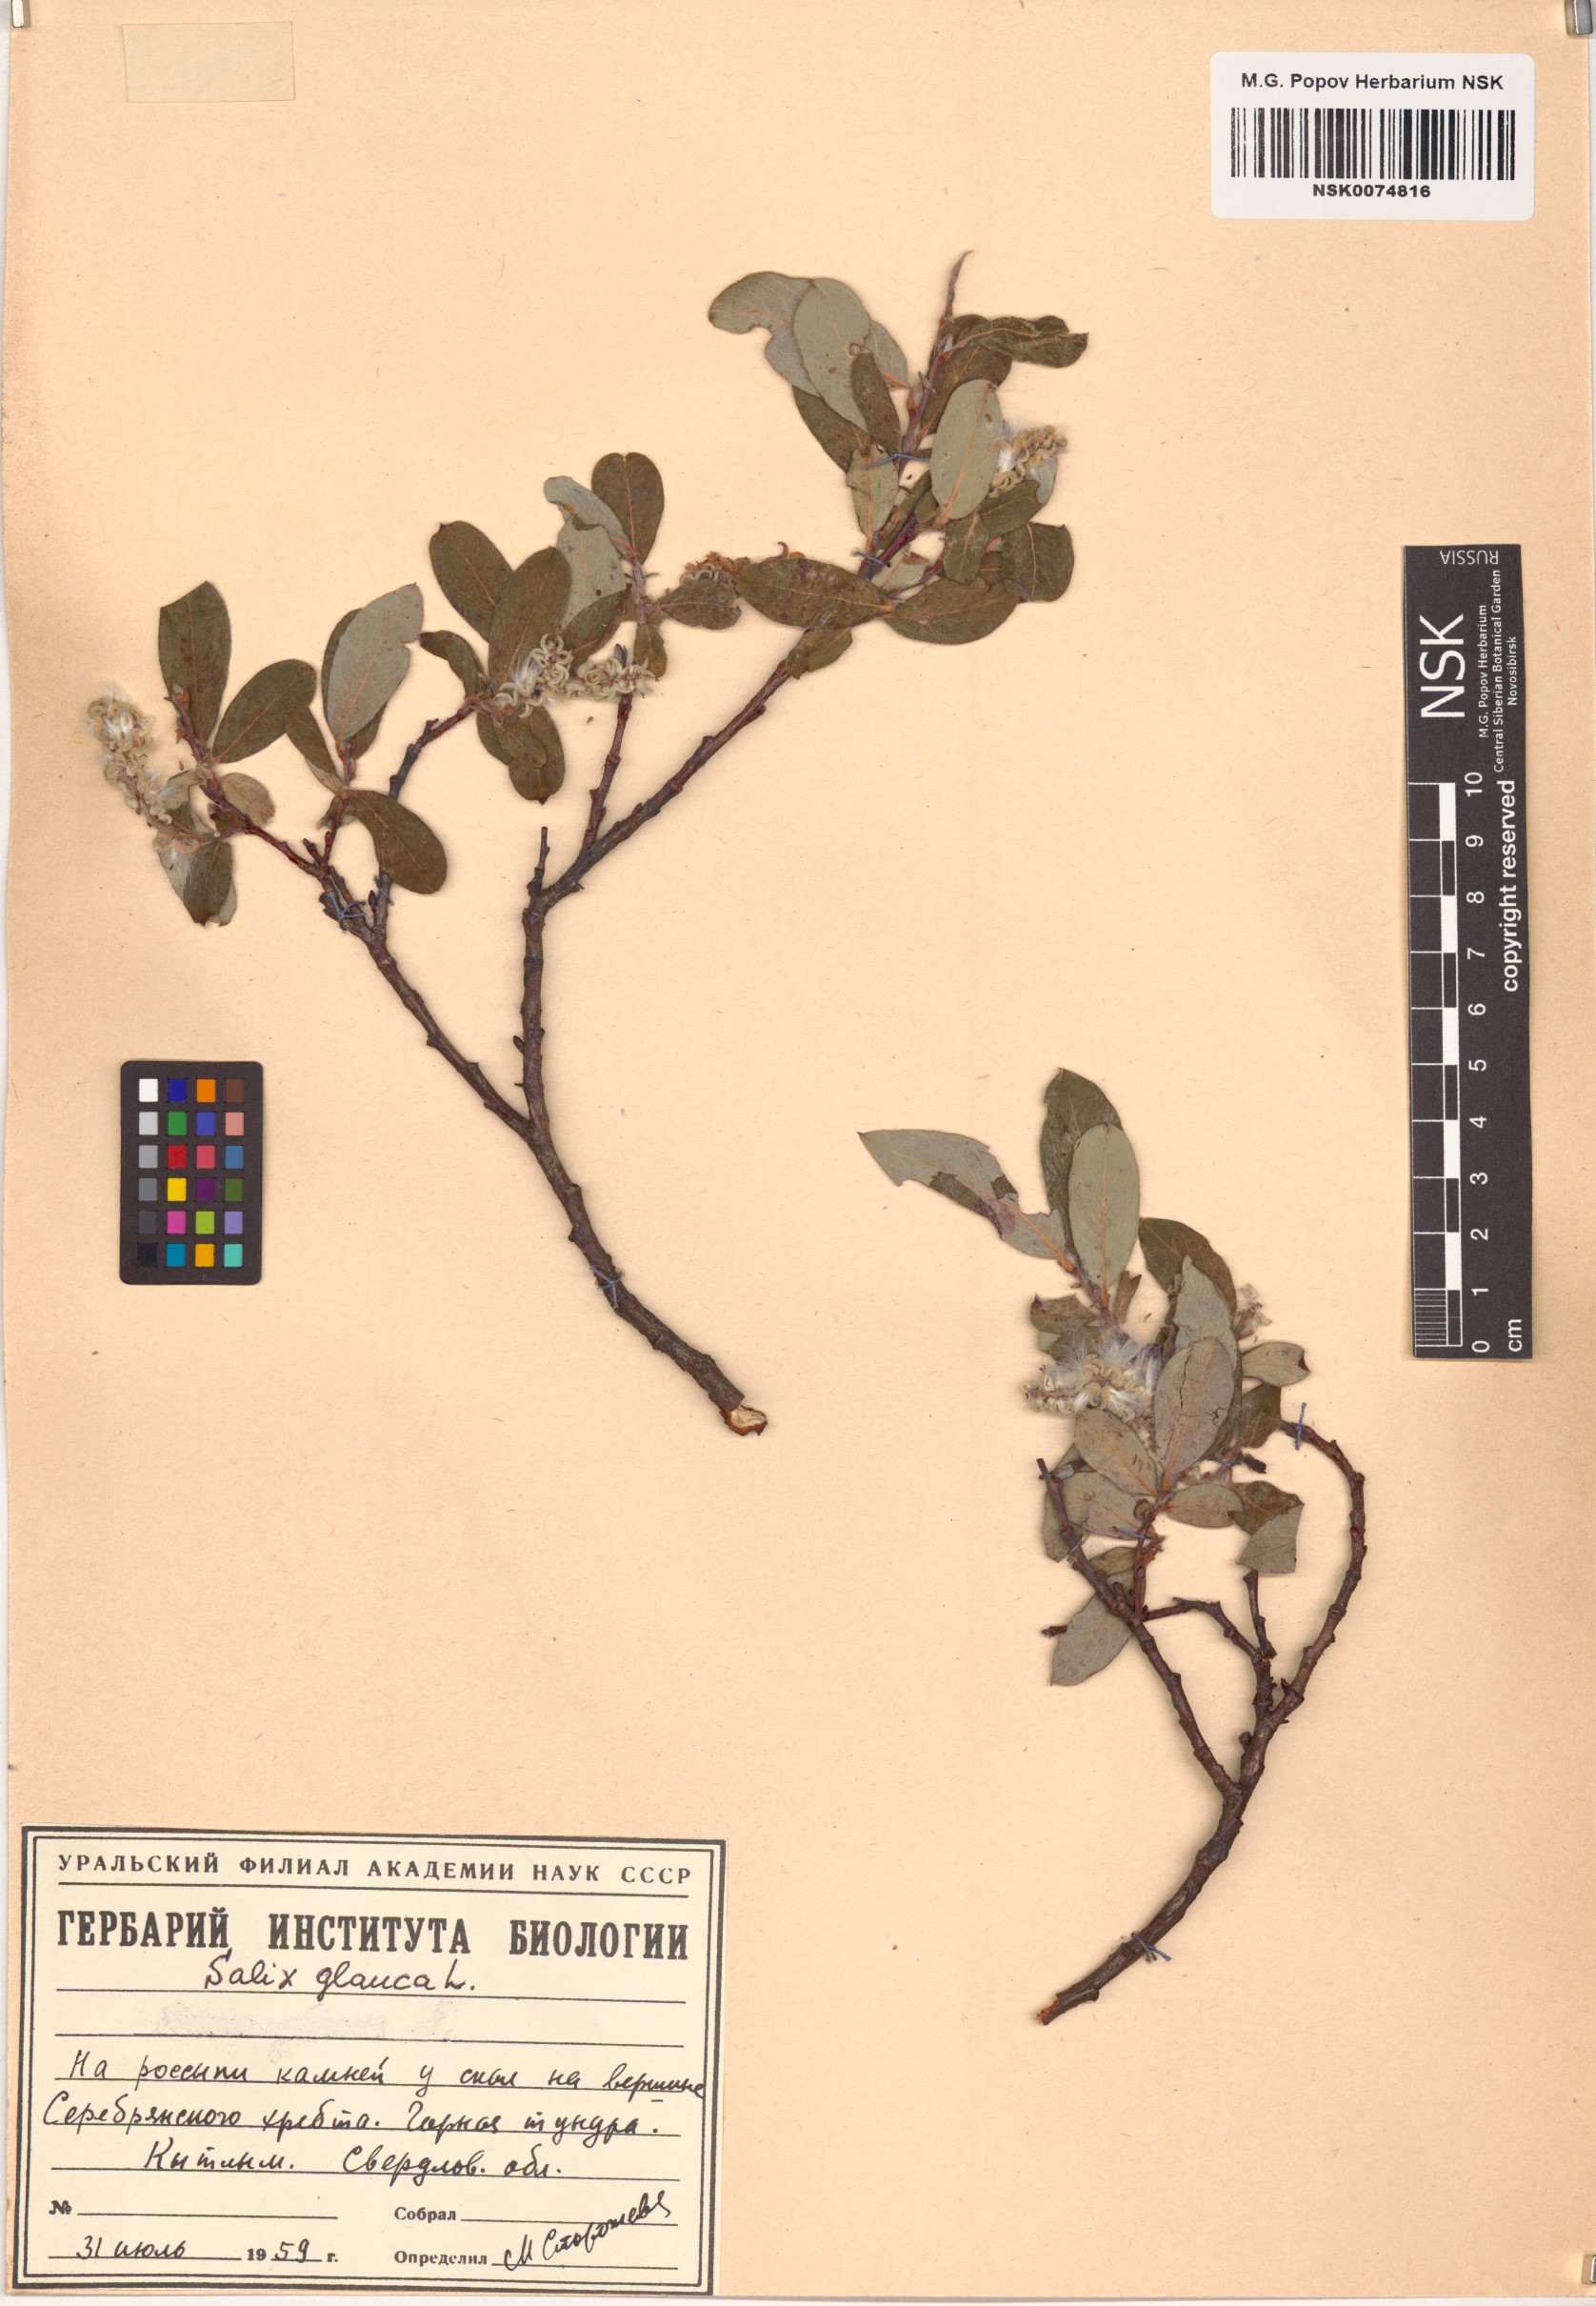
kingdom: Plantae
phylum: Tracheophyta
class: Magnoliopsida
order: Malpighiales
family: Salicaceae
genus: Salix
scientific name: Salix glauca
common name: Glaucous willow
